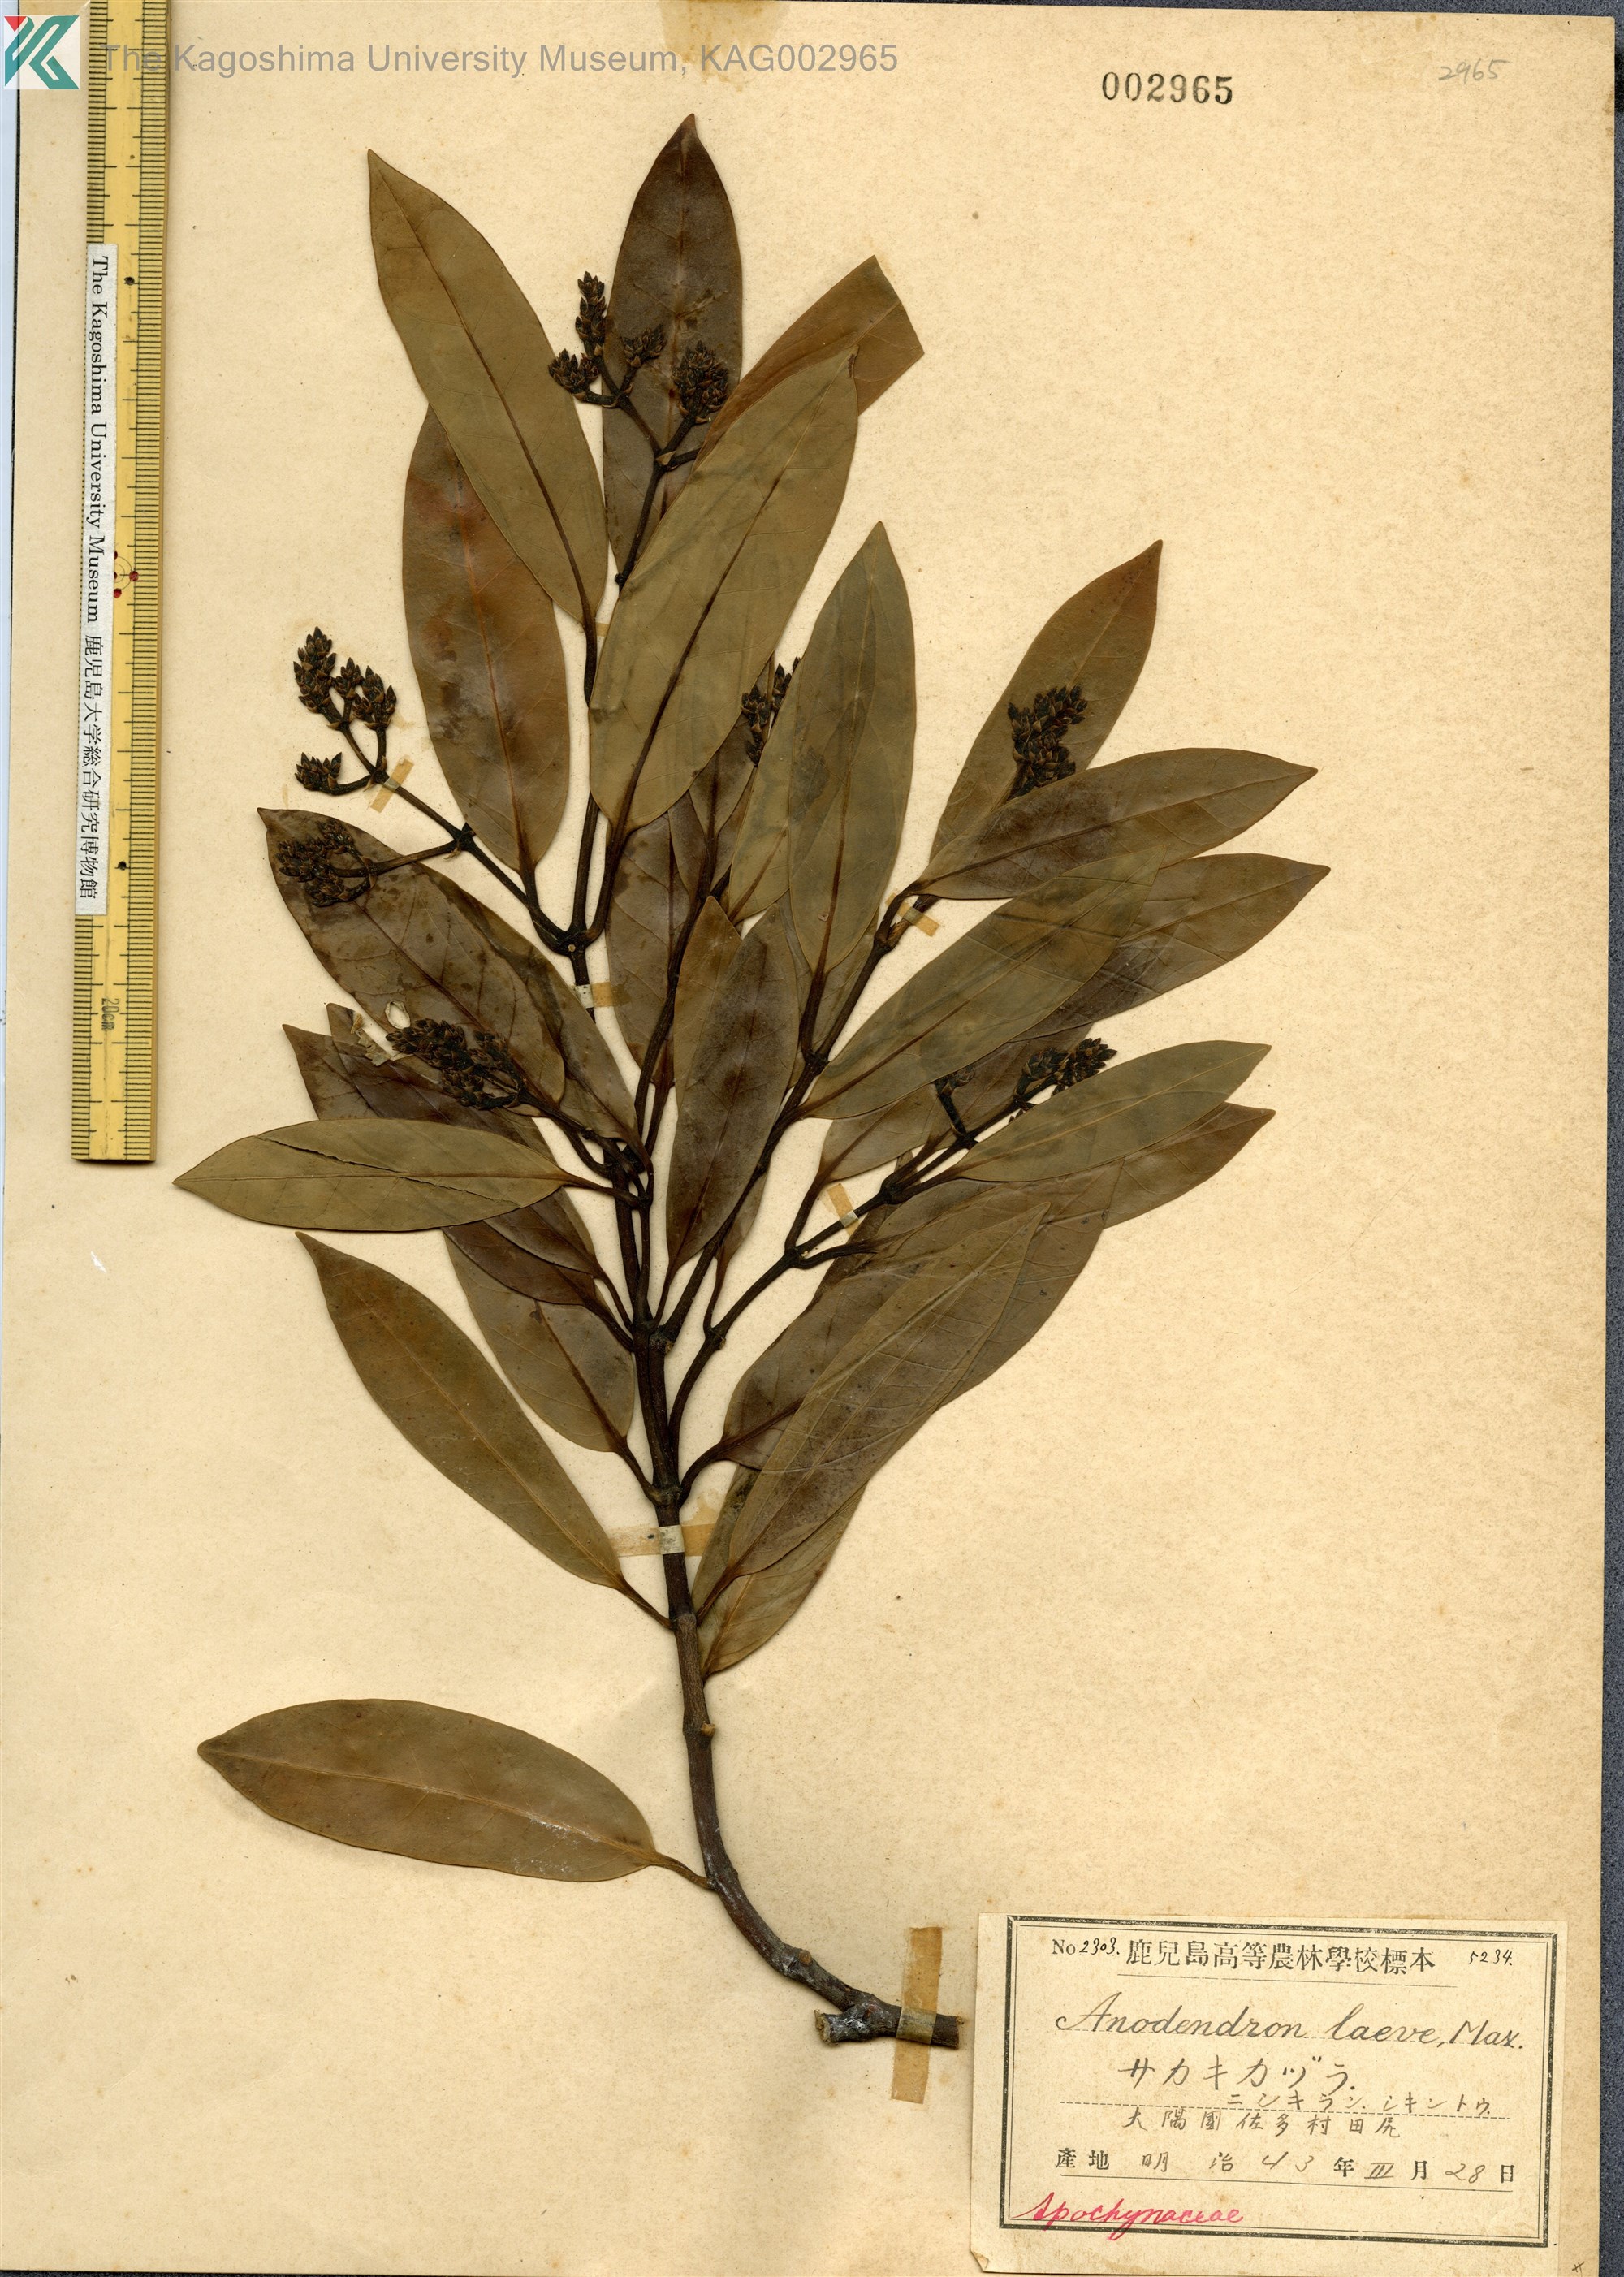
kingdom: Plantae
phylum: Tracheophyta
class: Magnoliopsida
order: Gentianales
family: Apocynaceae
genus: Anodendron
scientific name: Anodendron affine
